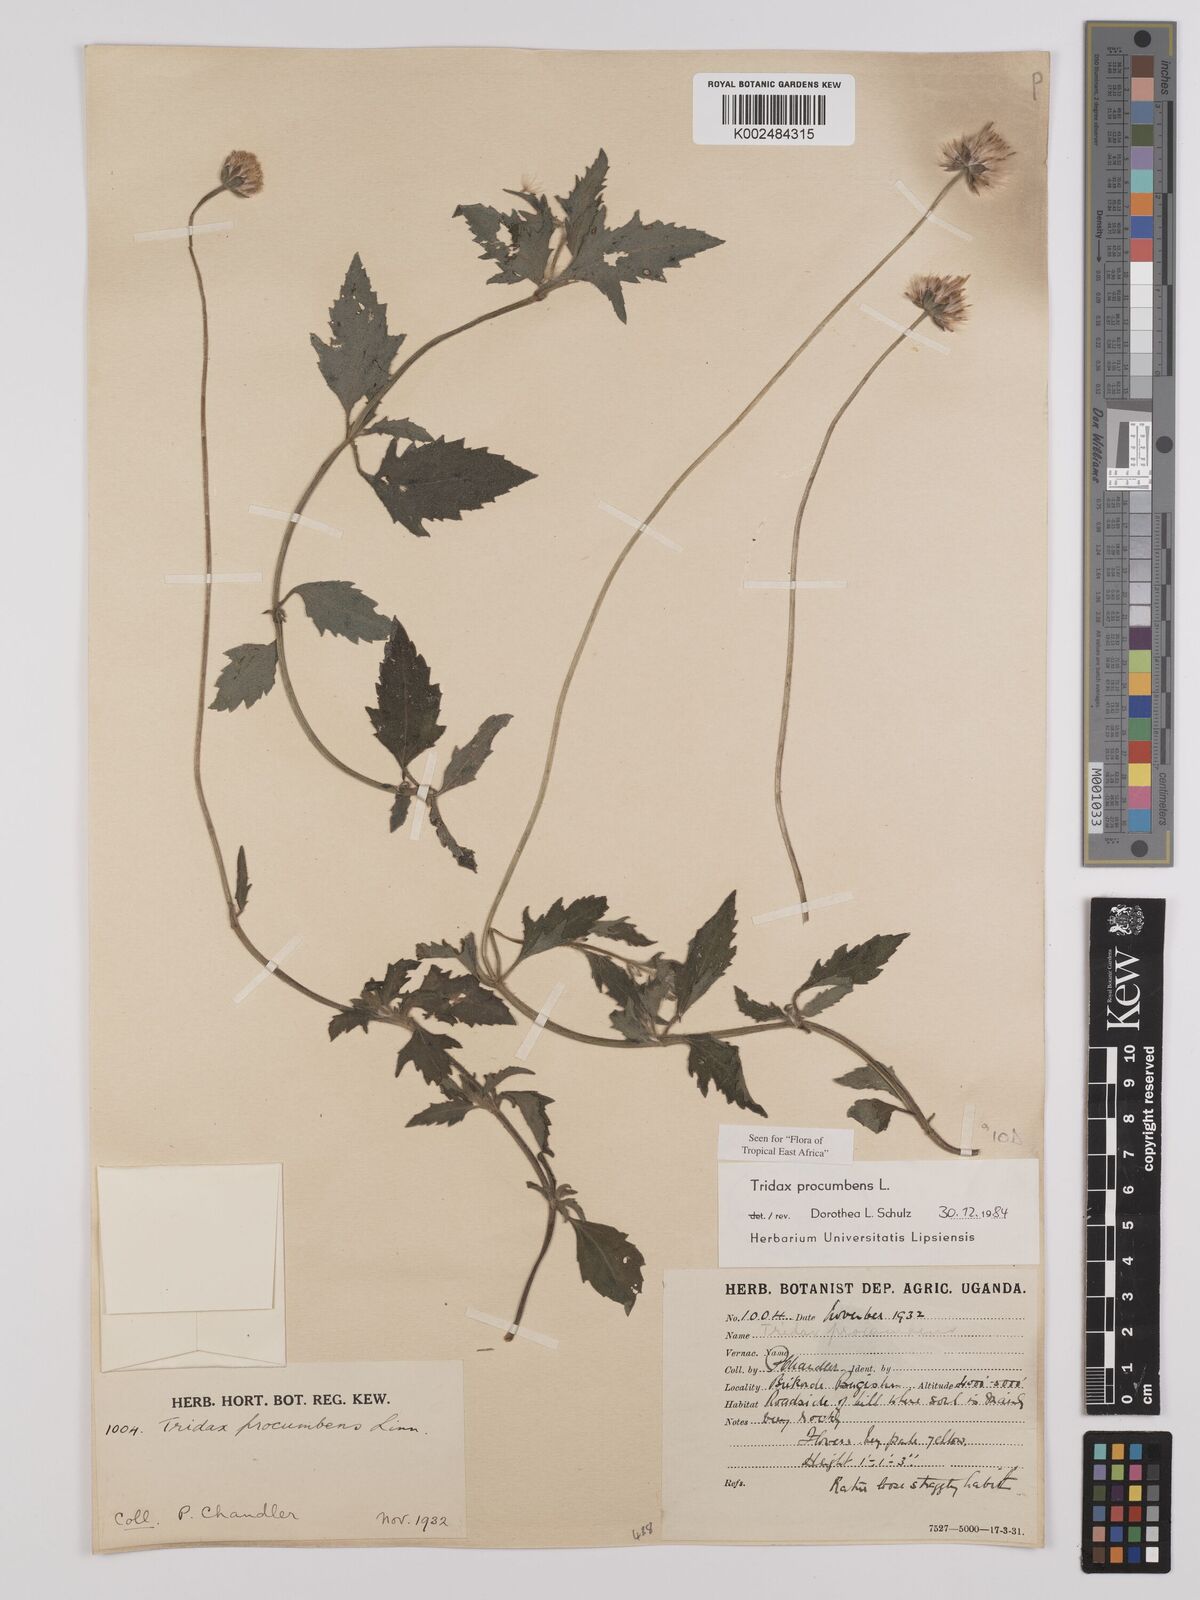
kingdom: Plantae
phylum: Tracheophyta
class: Magnoliopsida
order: Asterales
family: Asteraceae
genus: Tridax
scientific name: Tridax procumbens
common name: Coatbuttons
